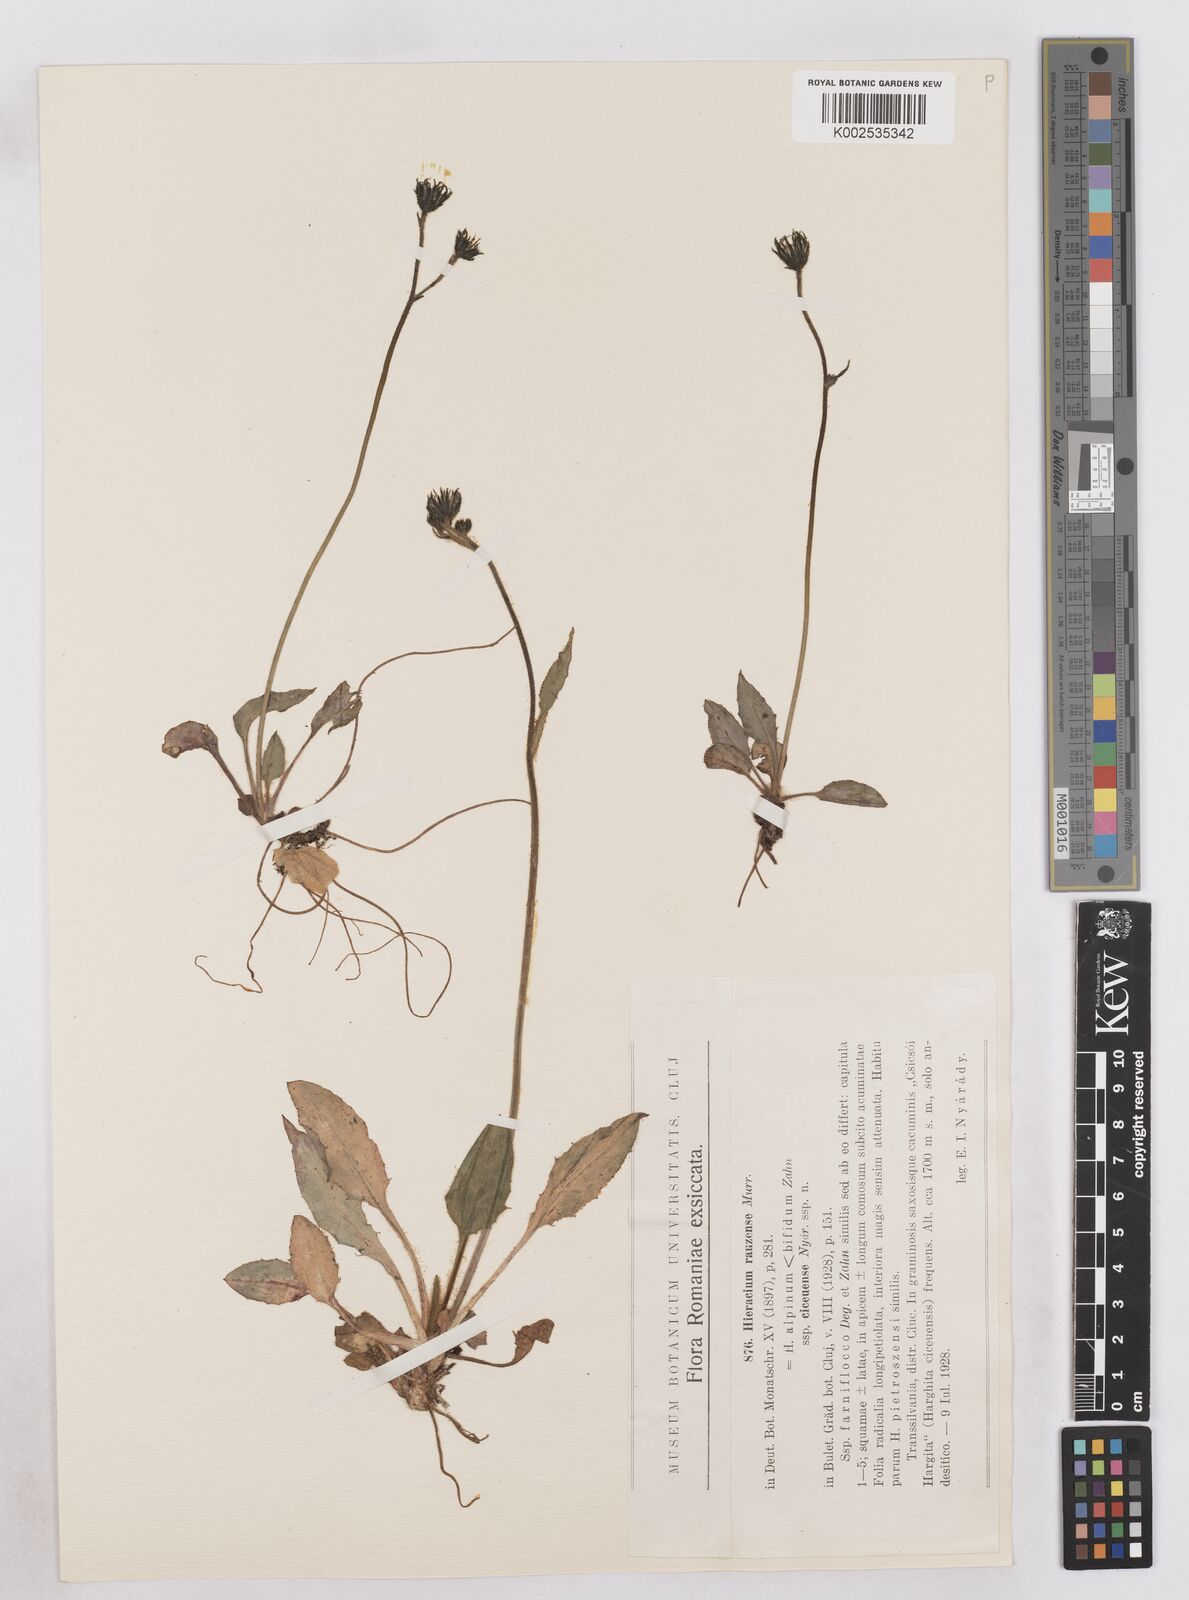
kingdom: Plantae
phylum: Tracheophyta
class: Magnoliopsida
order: Asterales
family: Asteraceae
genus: Hieracium
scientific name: Hieracium conspurcans
